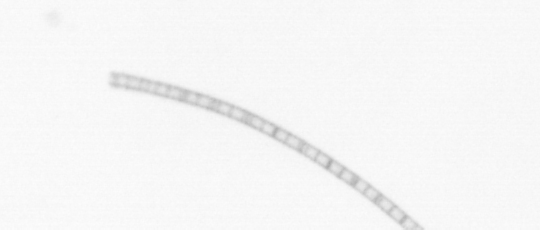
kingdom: Chromista
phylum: Ochrophyta
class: Bacillariophyceae
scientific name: Bacillariophyceae
